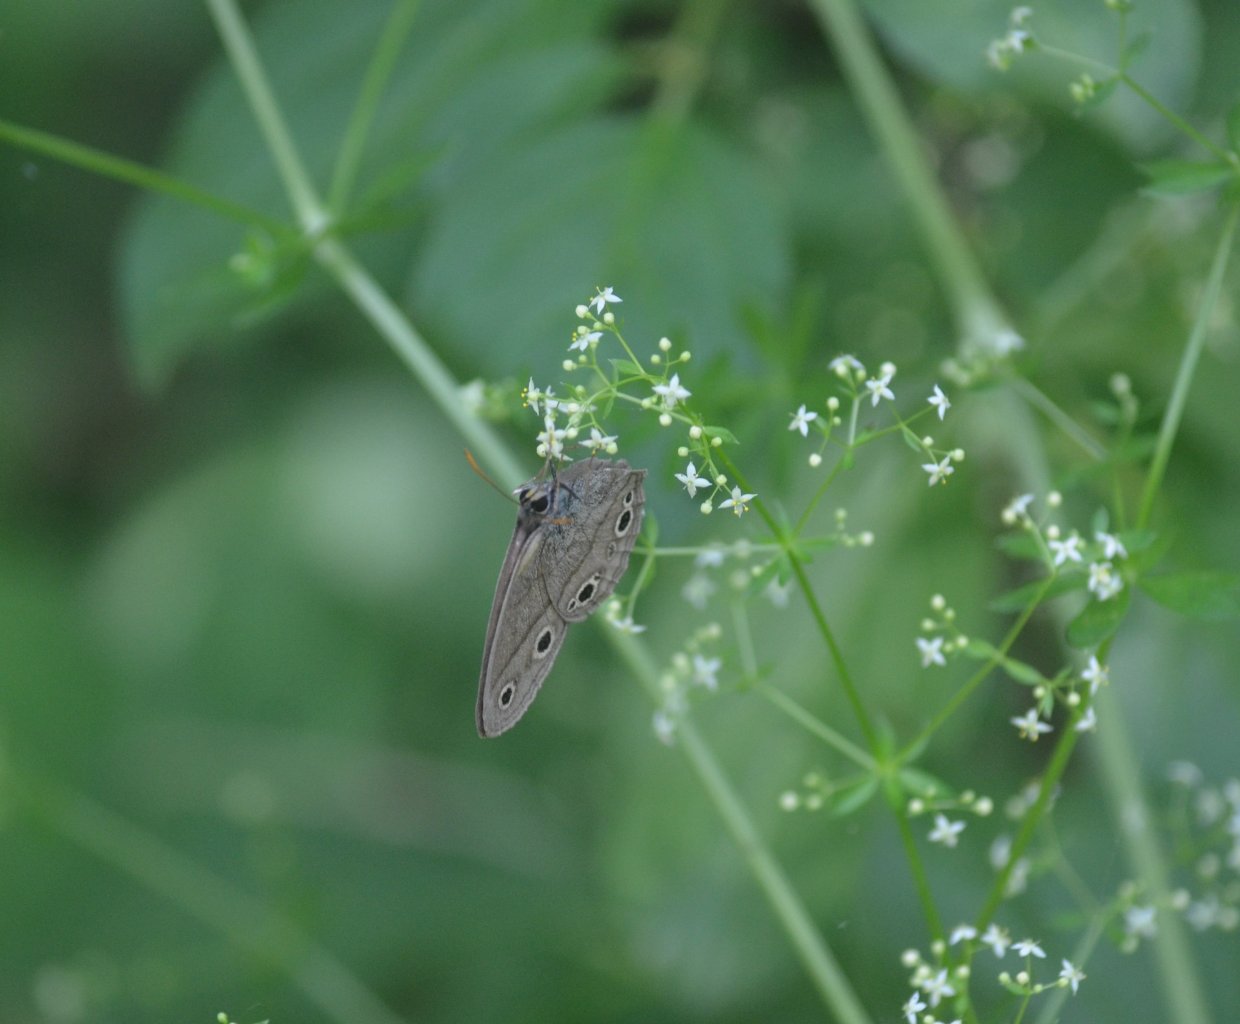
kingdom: Animalia
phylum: Arthropoda
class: Insecta
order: Lepidoptera
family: Nymphalidae
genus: Euptychia
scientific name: Euptychia cymela
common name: Little Wood Satyr
